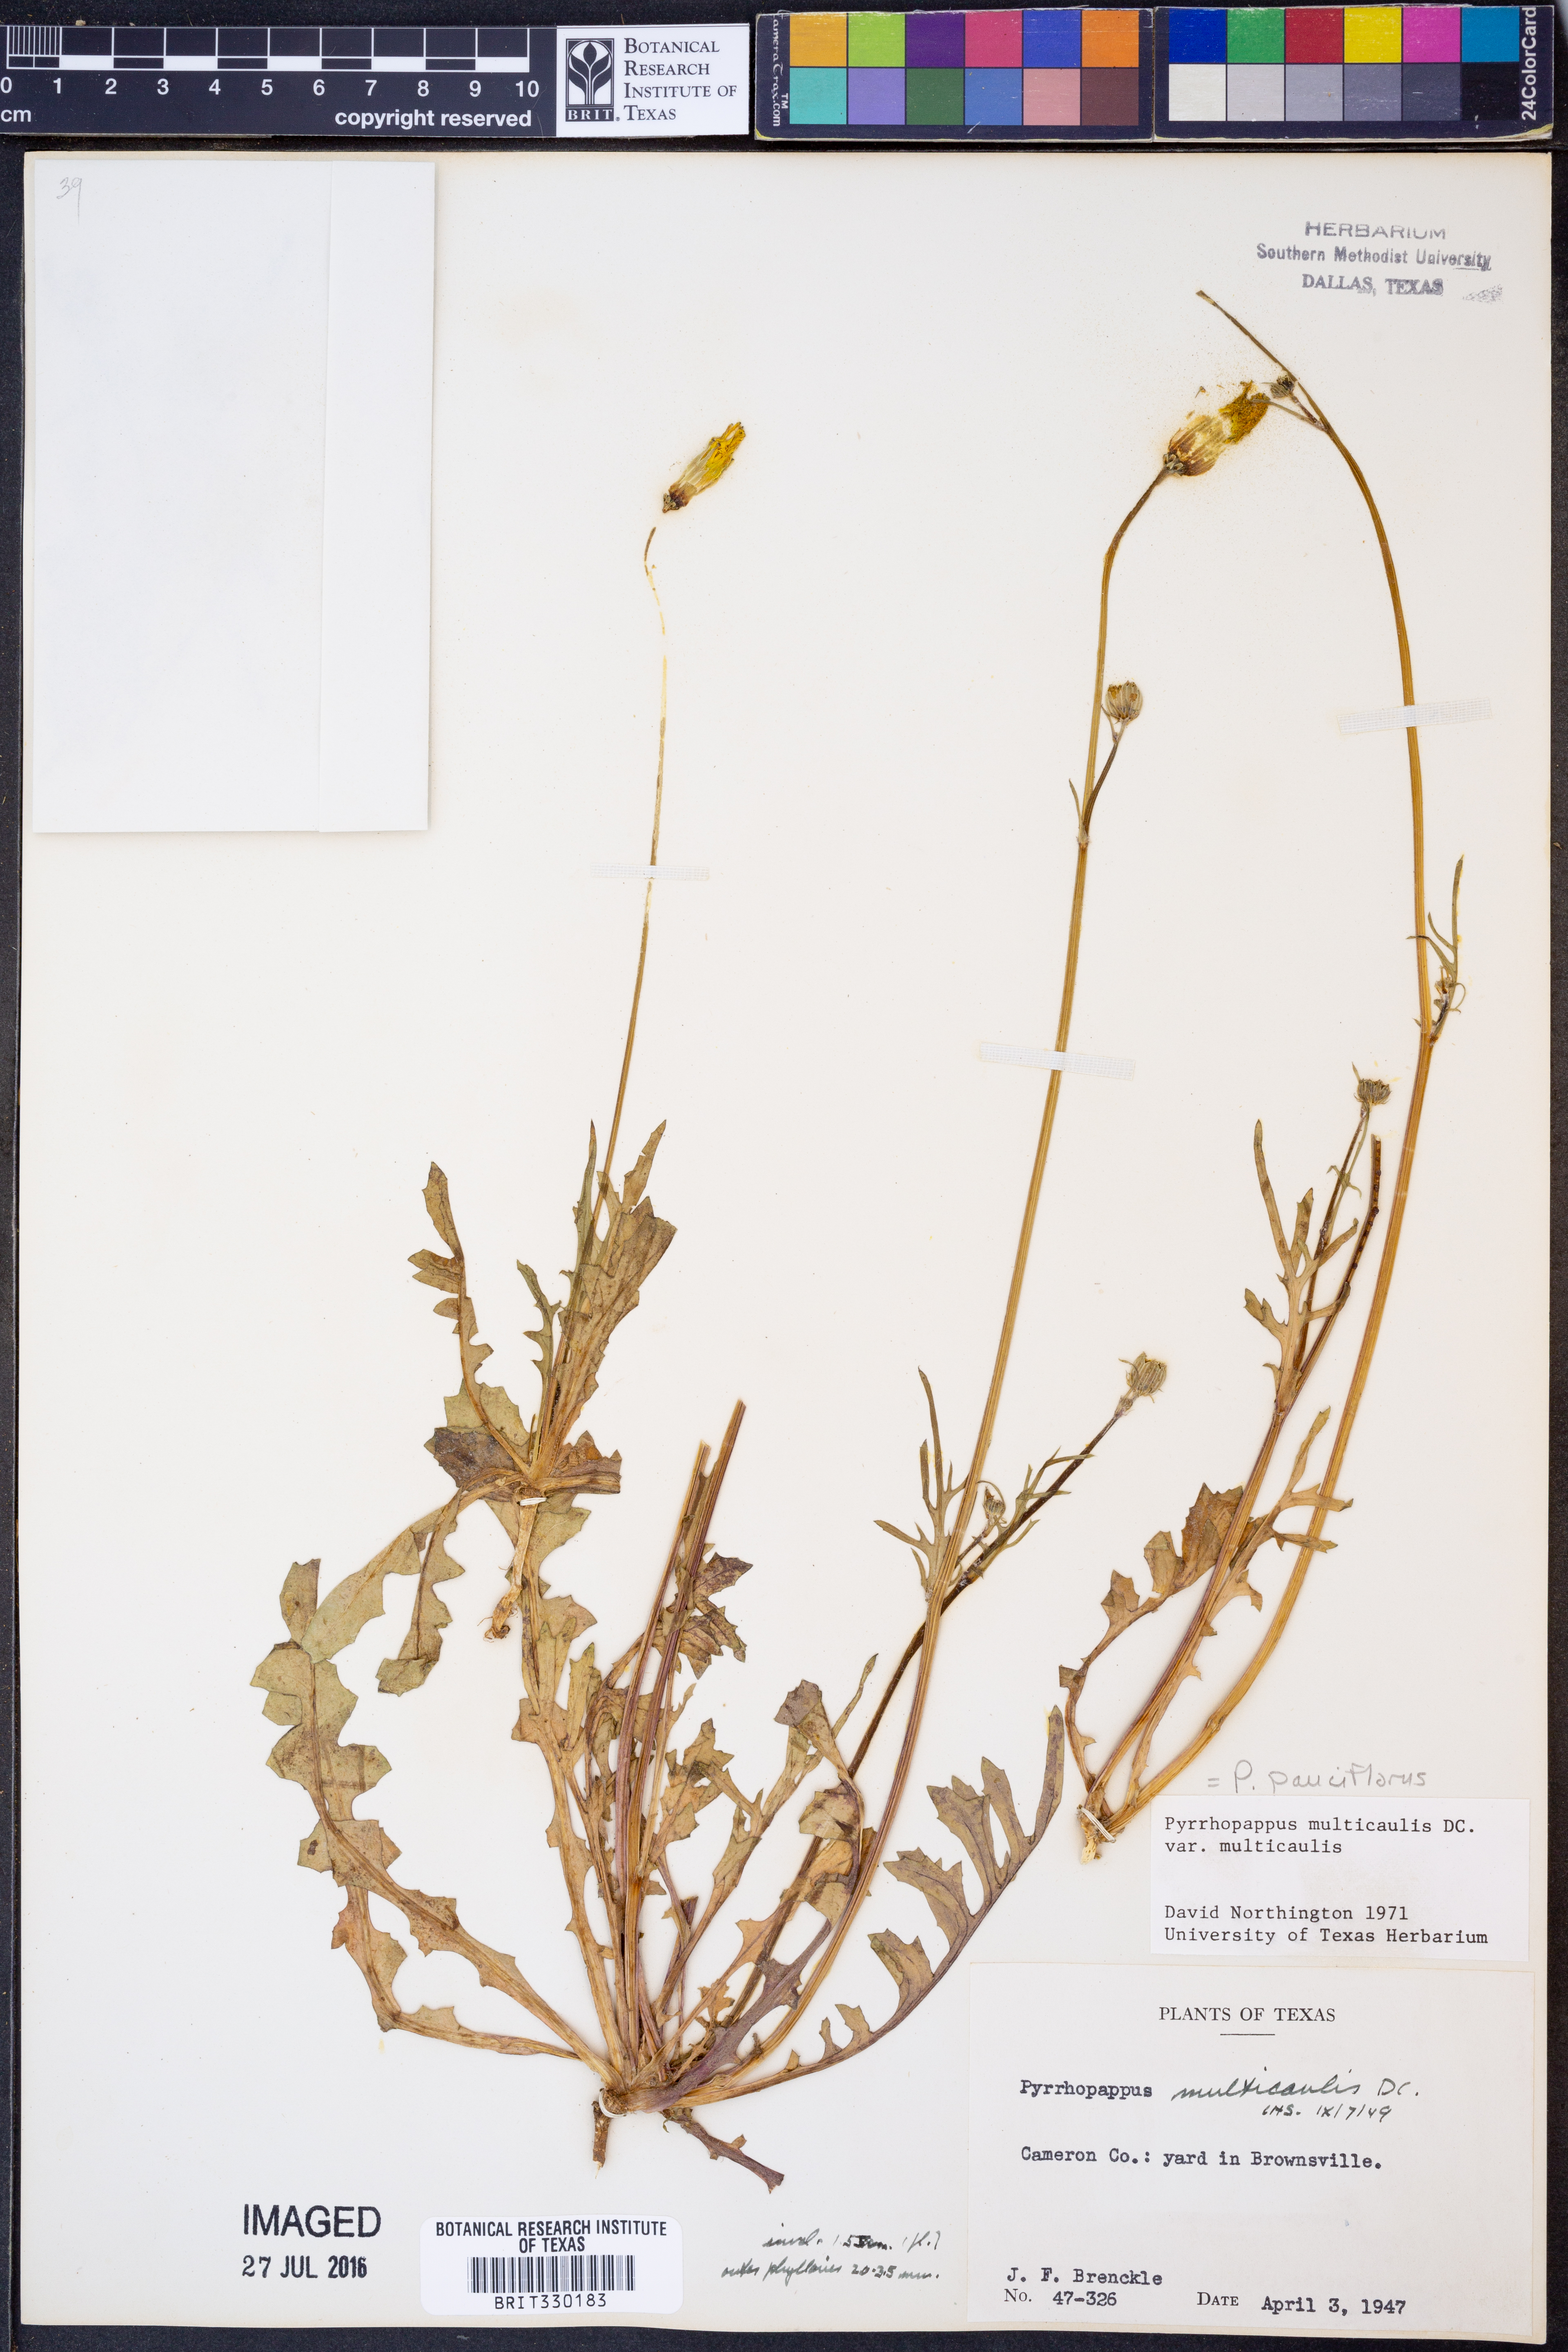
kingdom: Plantae
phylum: Tracheophyta
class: Magnoliopsida
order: Asterales
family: Asteraceae
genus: Pyrrhopappus
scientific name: Pyrrhopappus pauciflorus
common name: Texas false dandelion
